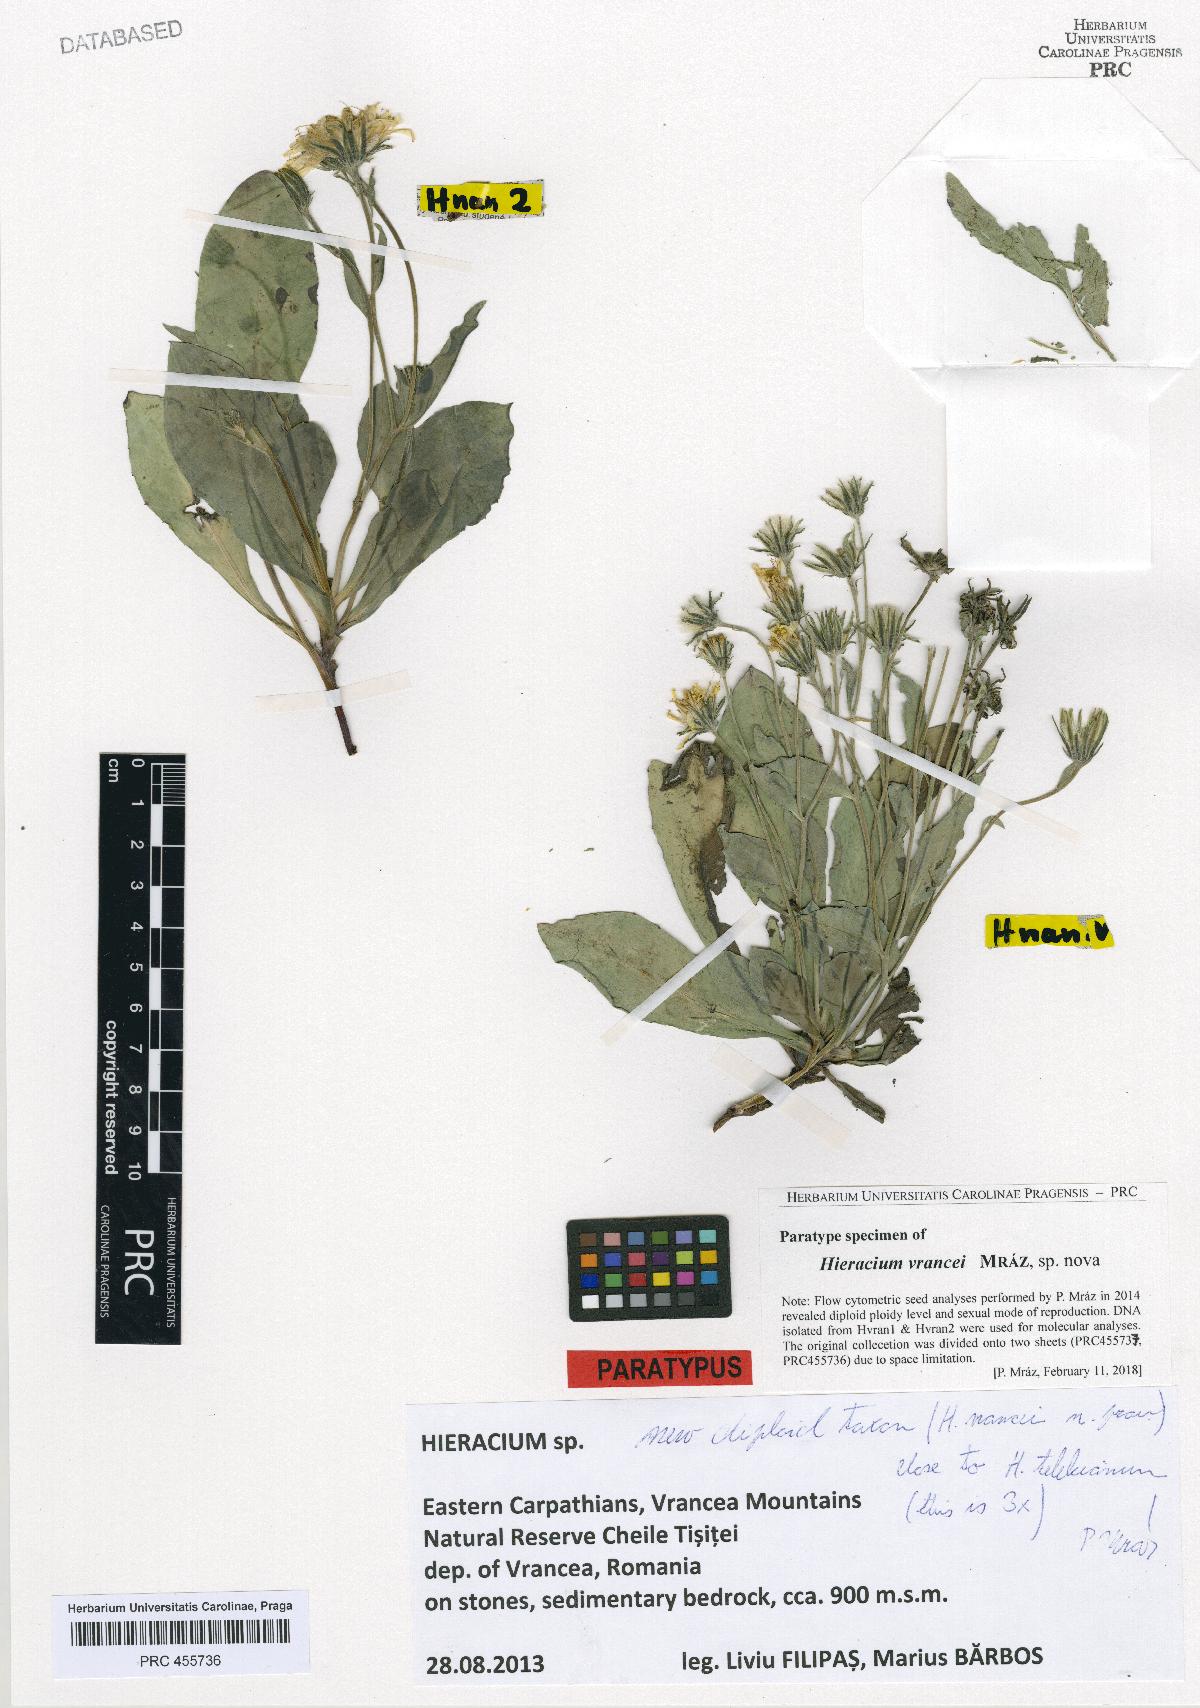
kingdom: Plantae
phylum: Tracheophyta
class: Magnoliopsida
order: Asterales
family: Asteraceae
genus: Hieracium
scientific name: Hieracium
